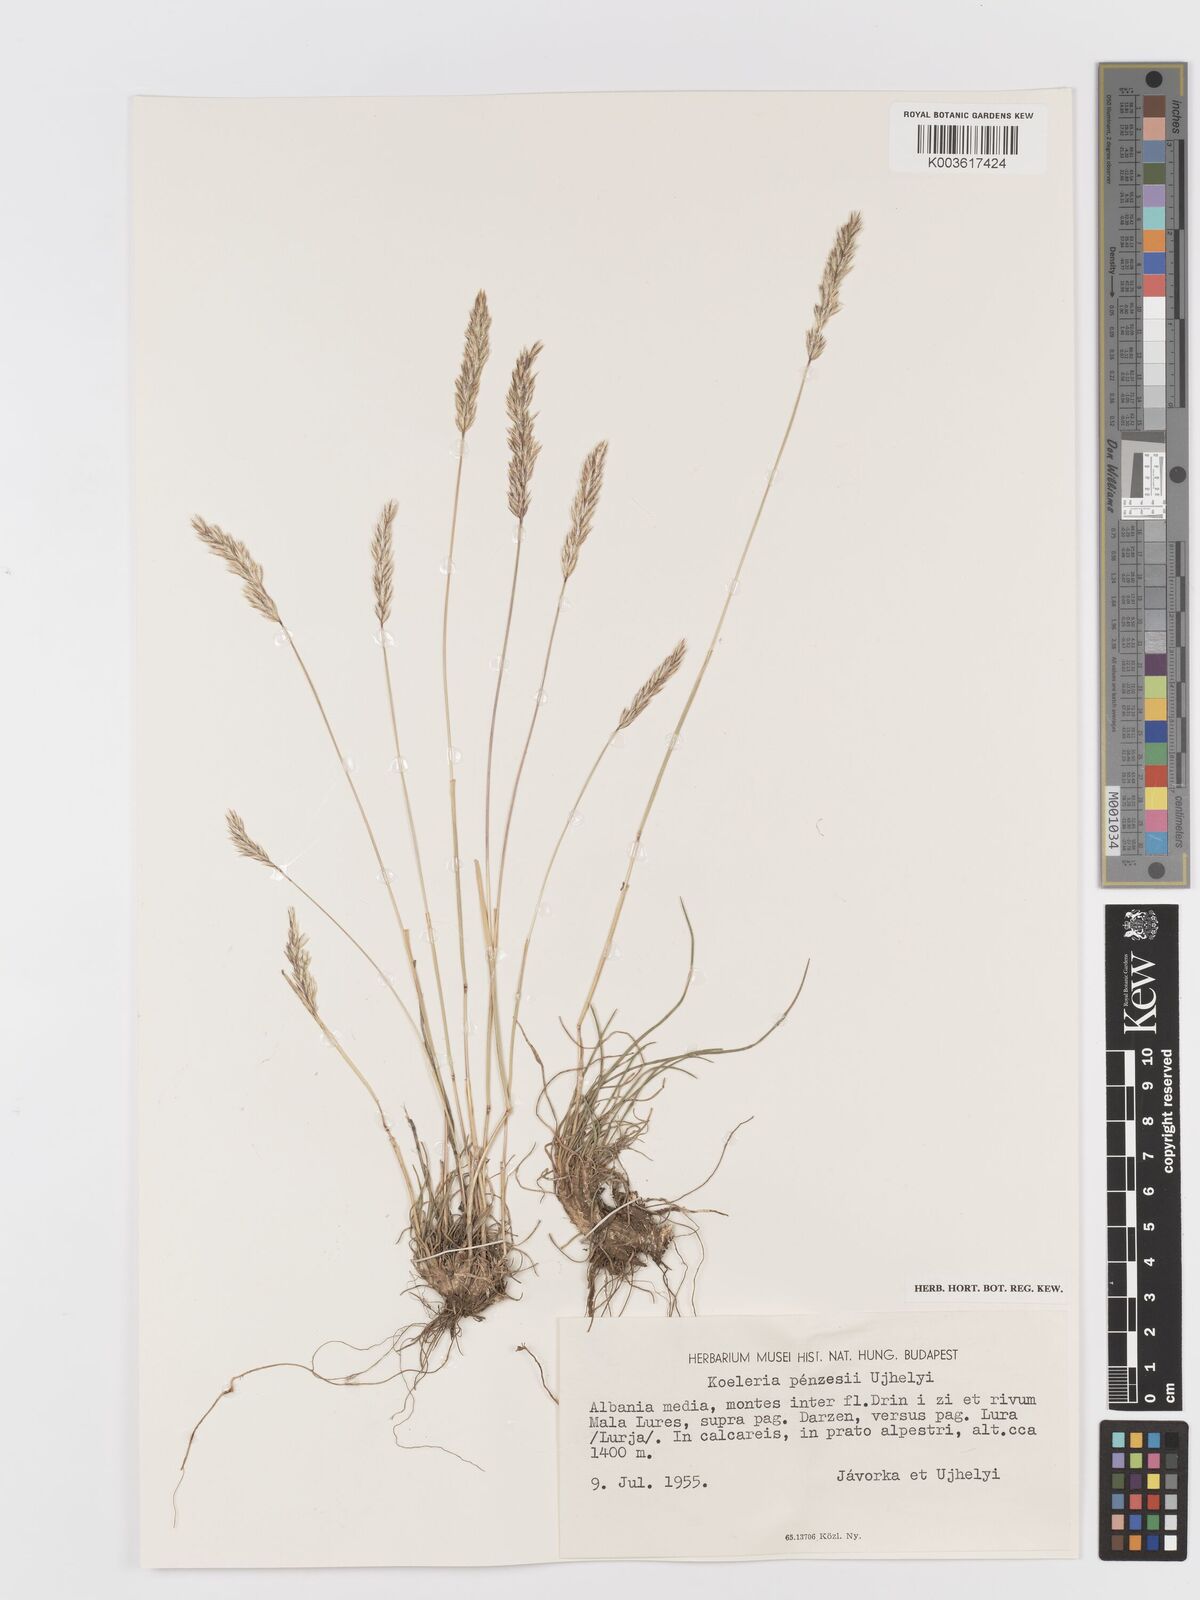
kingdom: Plantae
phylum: Tracheophyta
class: Liliopsida
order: Poales
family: Poaceae
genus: Koeleria
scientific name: Koeleria nitidula
